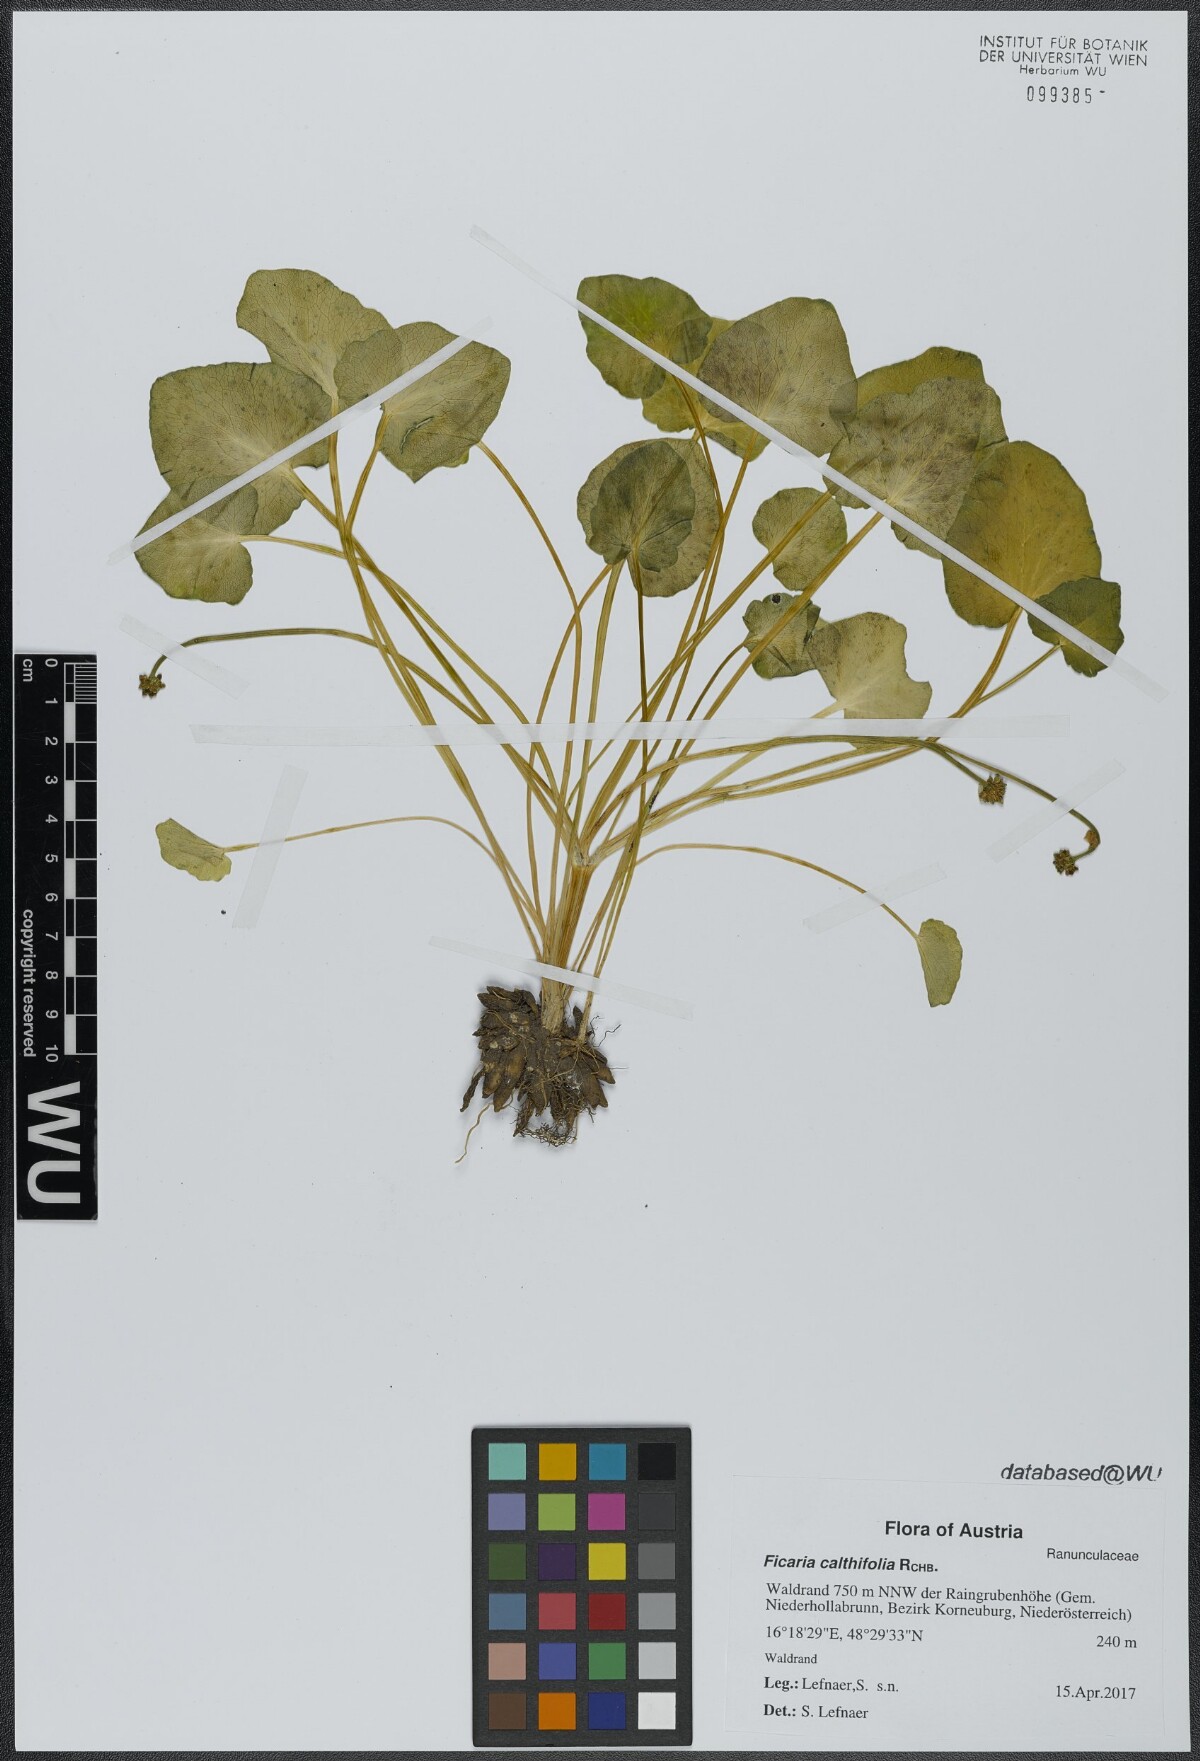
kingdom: Plantae
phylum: Tracheophyta
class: Magnoliopsida
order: Ranunculales
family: Ranunculaceae
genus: Ficaria
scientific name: Ficaria calthifolia
